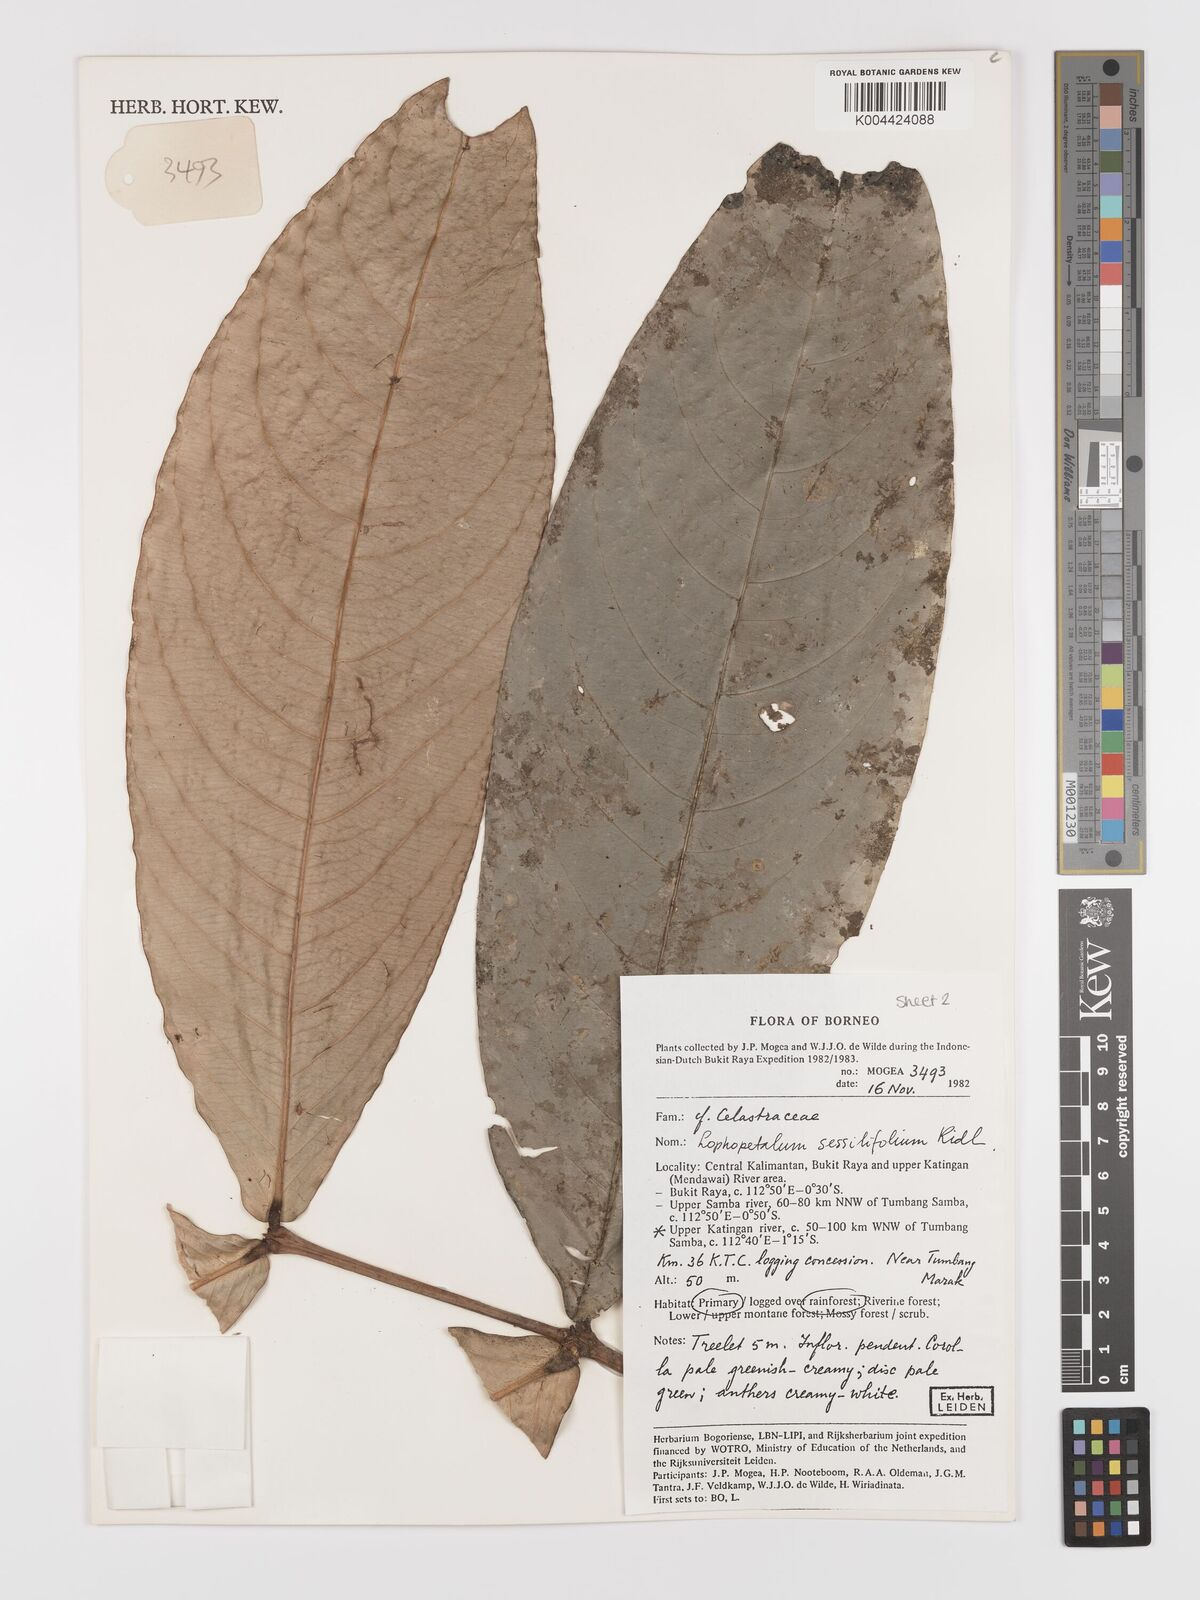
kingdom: Plantae
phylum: Tracheophyta
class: Magnoliopsida
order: Celastrales
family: Celastraceae
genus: Lophopetalum
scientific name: Lophopetalum sessilifolium
